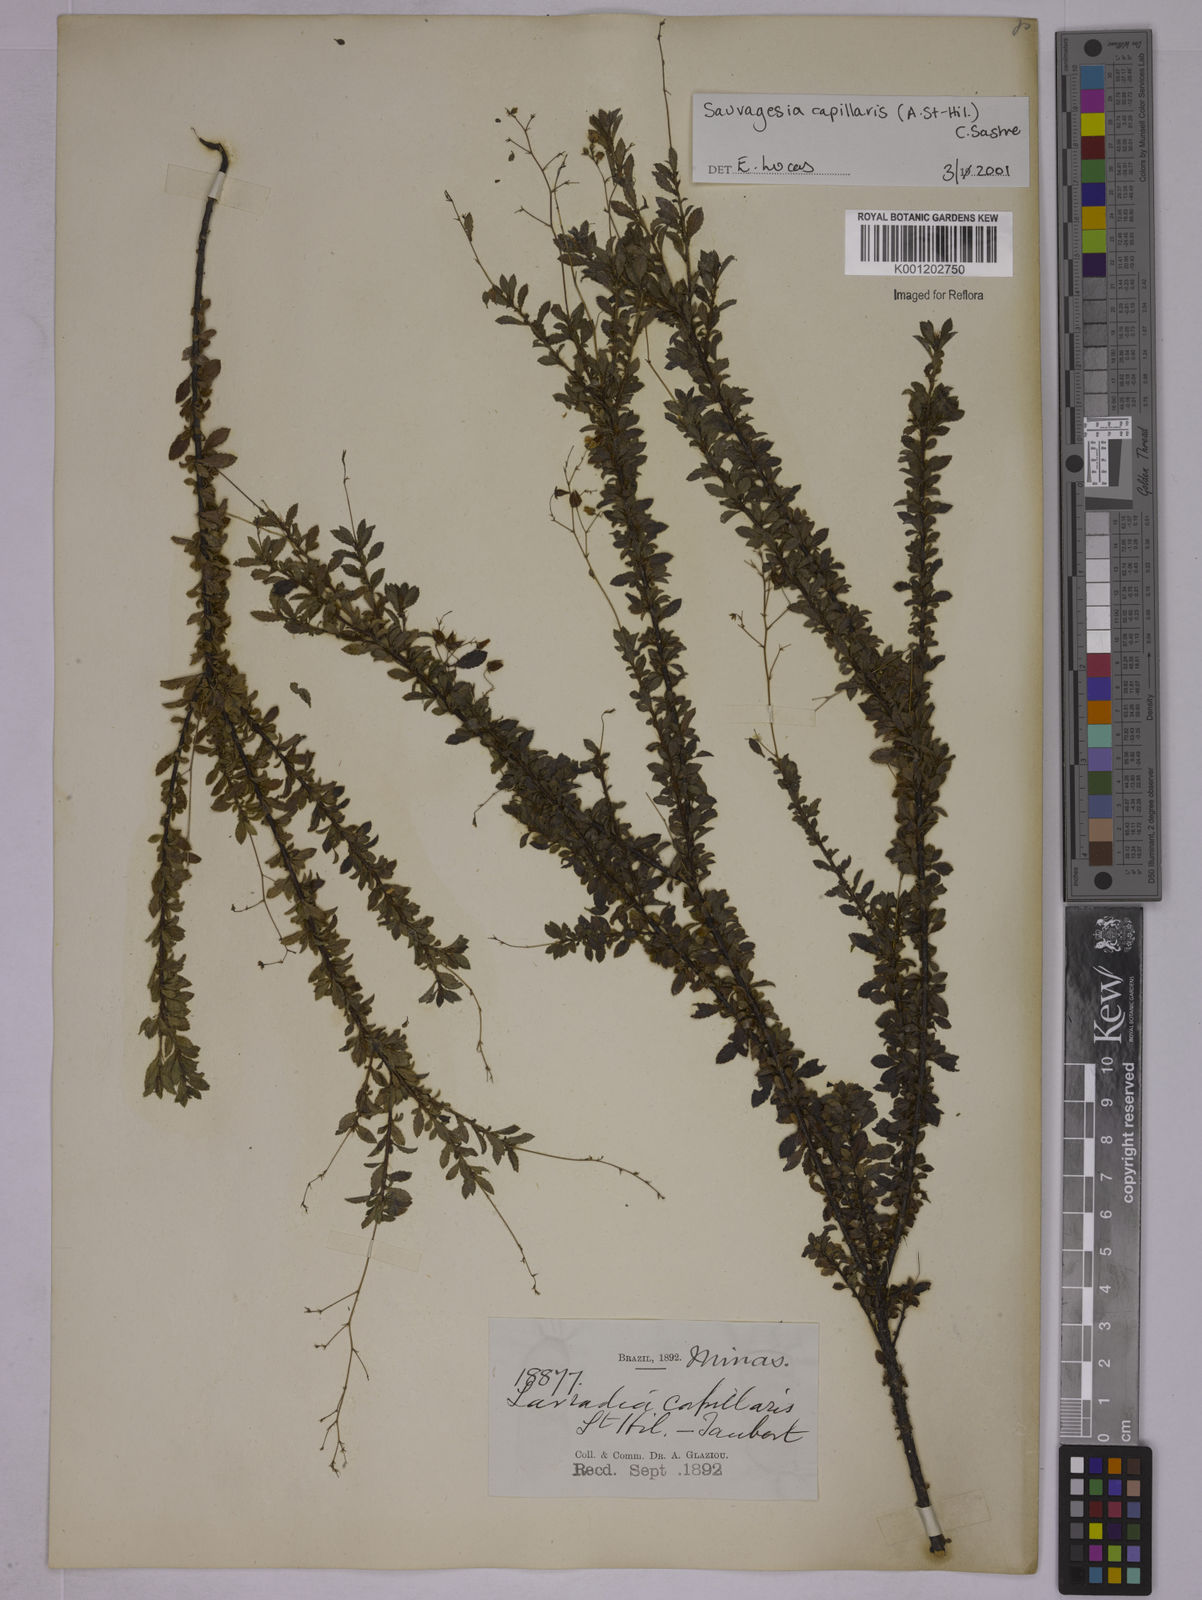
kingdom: Plantae
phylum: Tracheophyta
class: Magnoliopsida
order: Malpighiales
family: Ochnaceae
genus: Sauvagesia
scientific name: Sauvagesia capillaris
